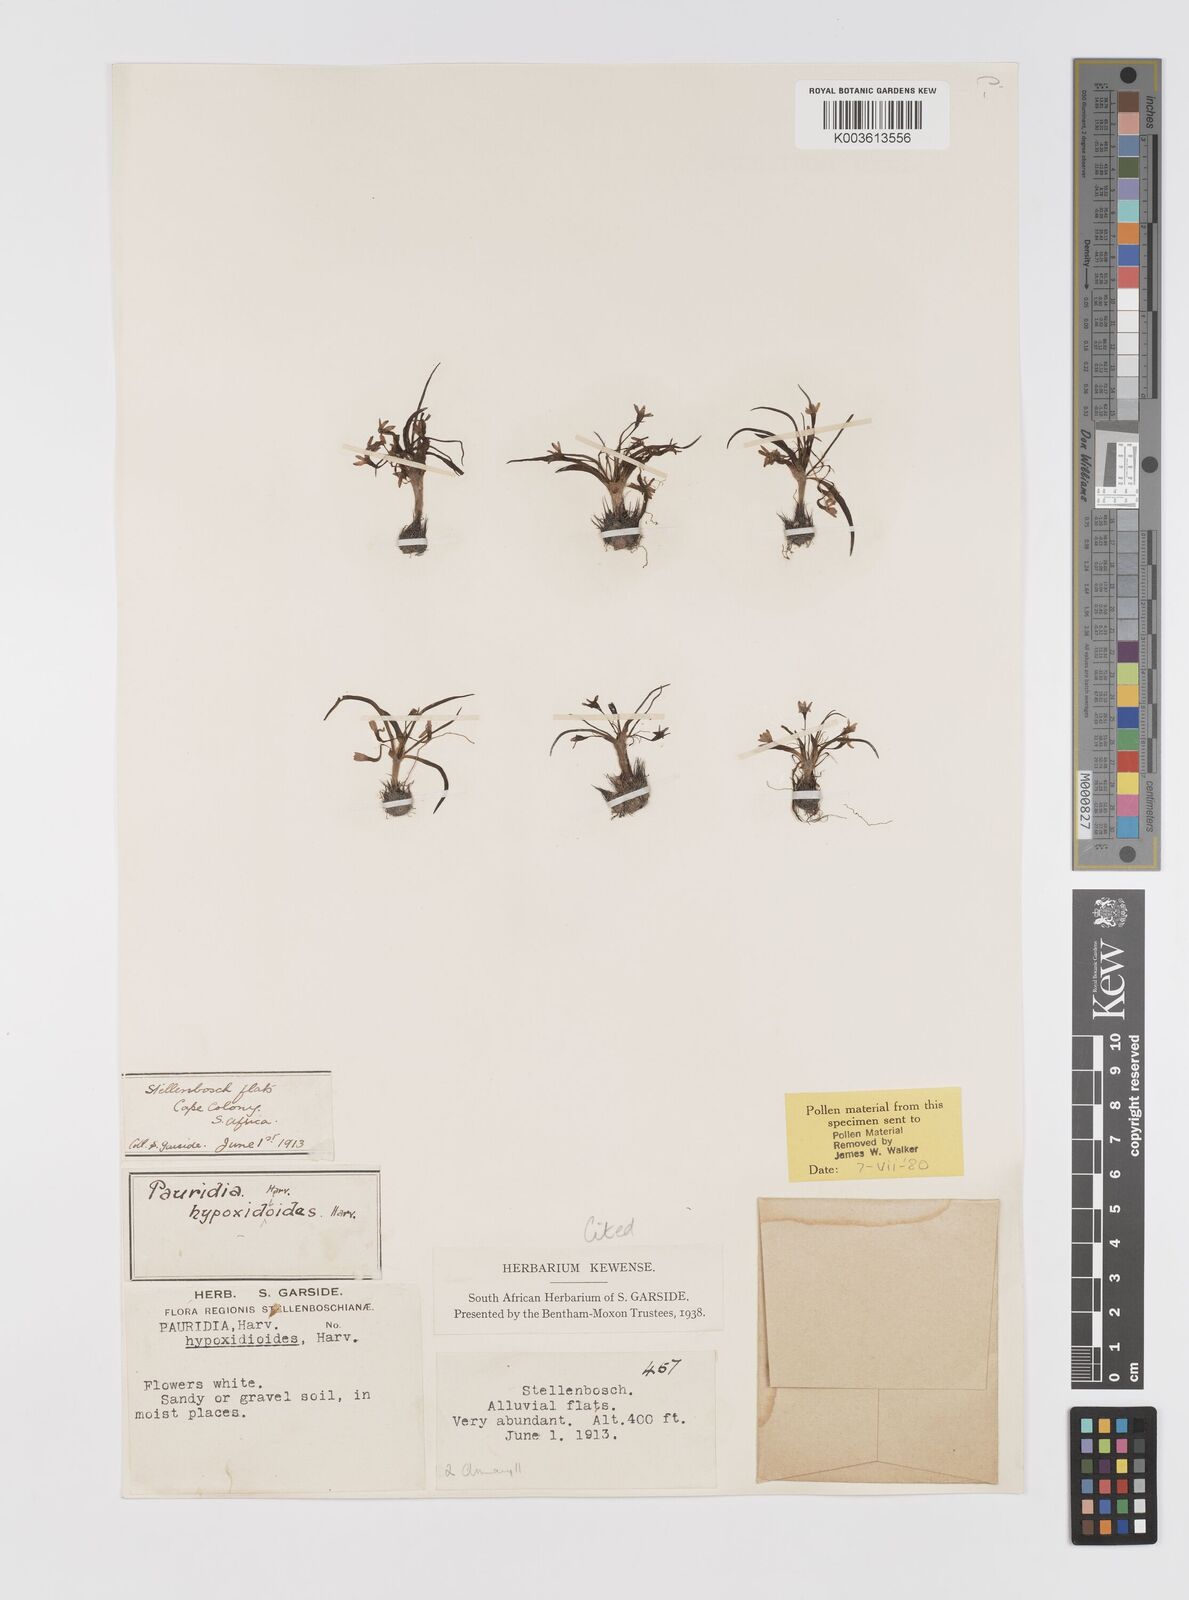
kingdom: Plantae
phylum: Tracheophyta
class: Liliopsida
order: Asparagales
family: Hypoxidaceae
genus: Pauridia
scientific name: Pauridia minuta
